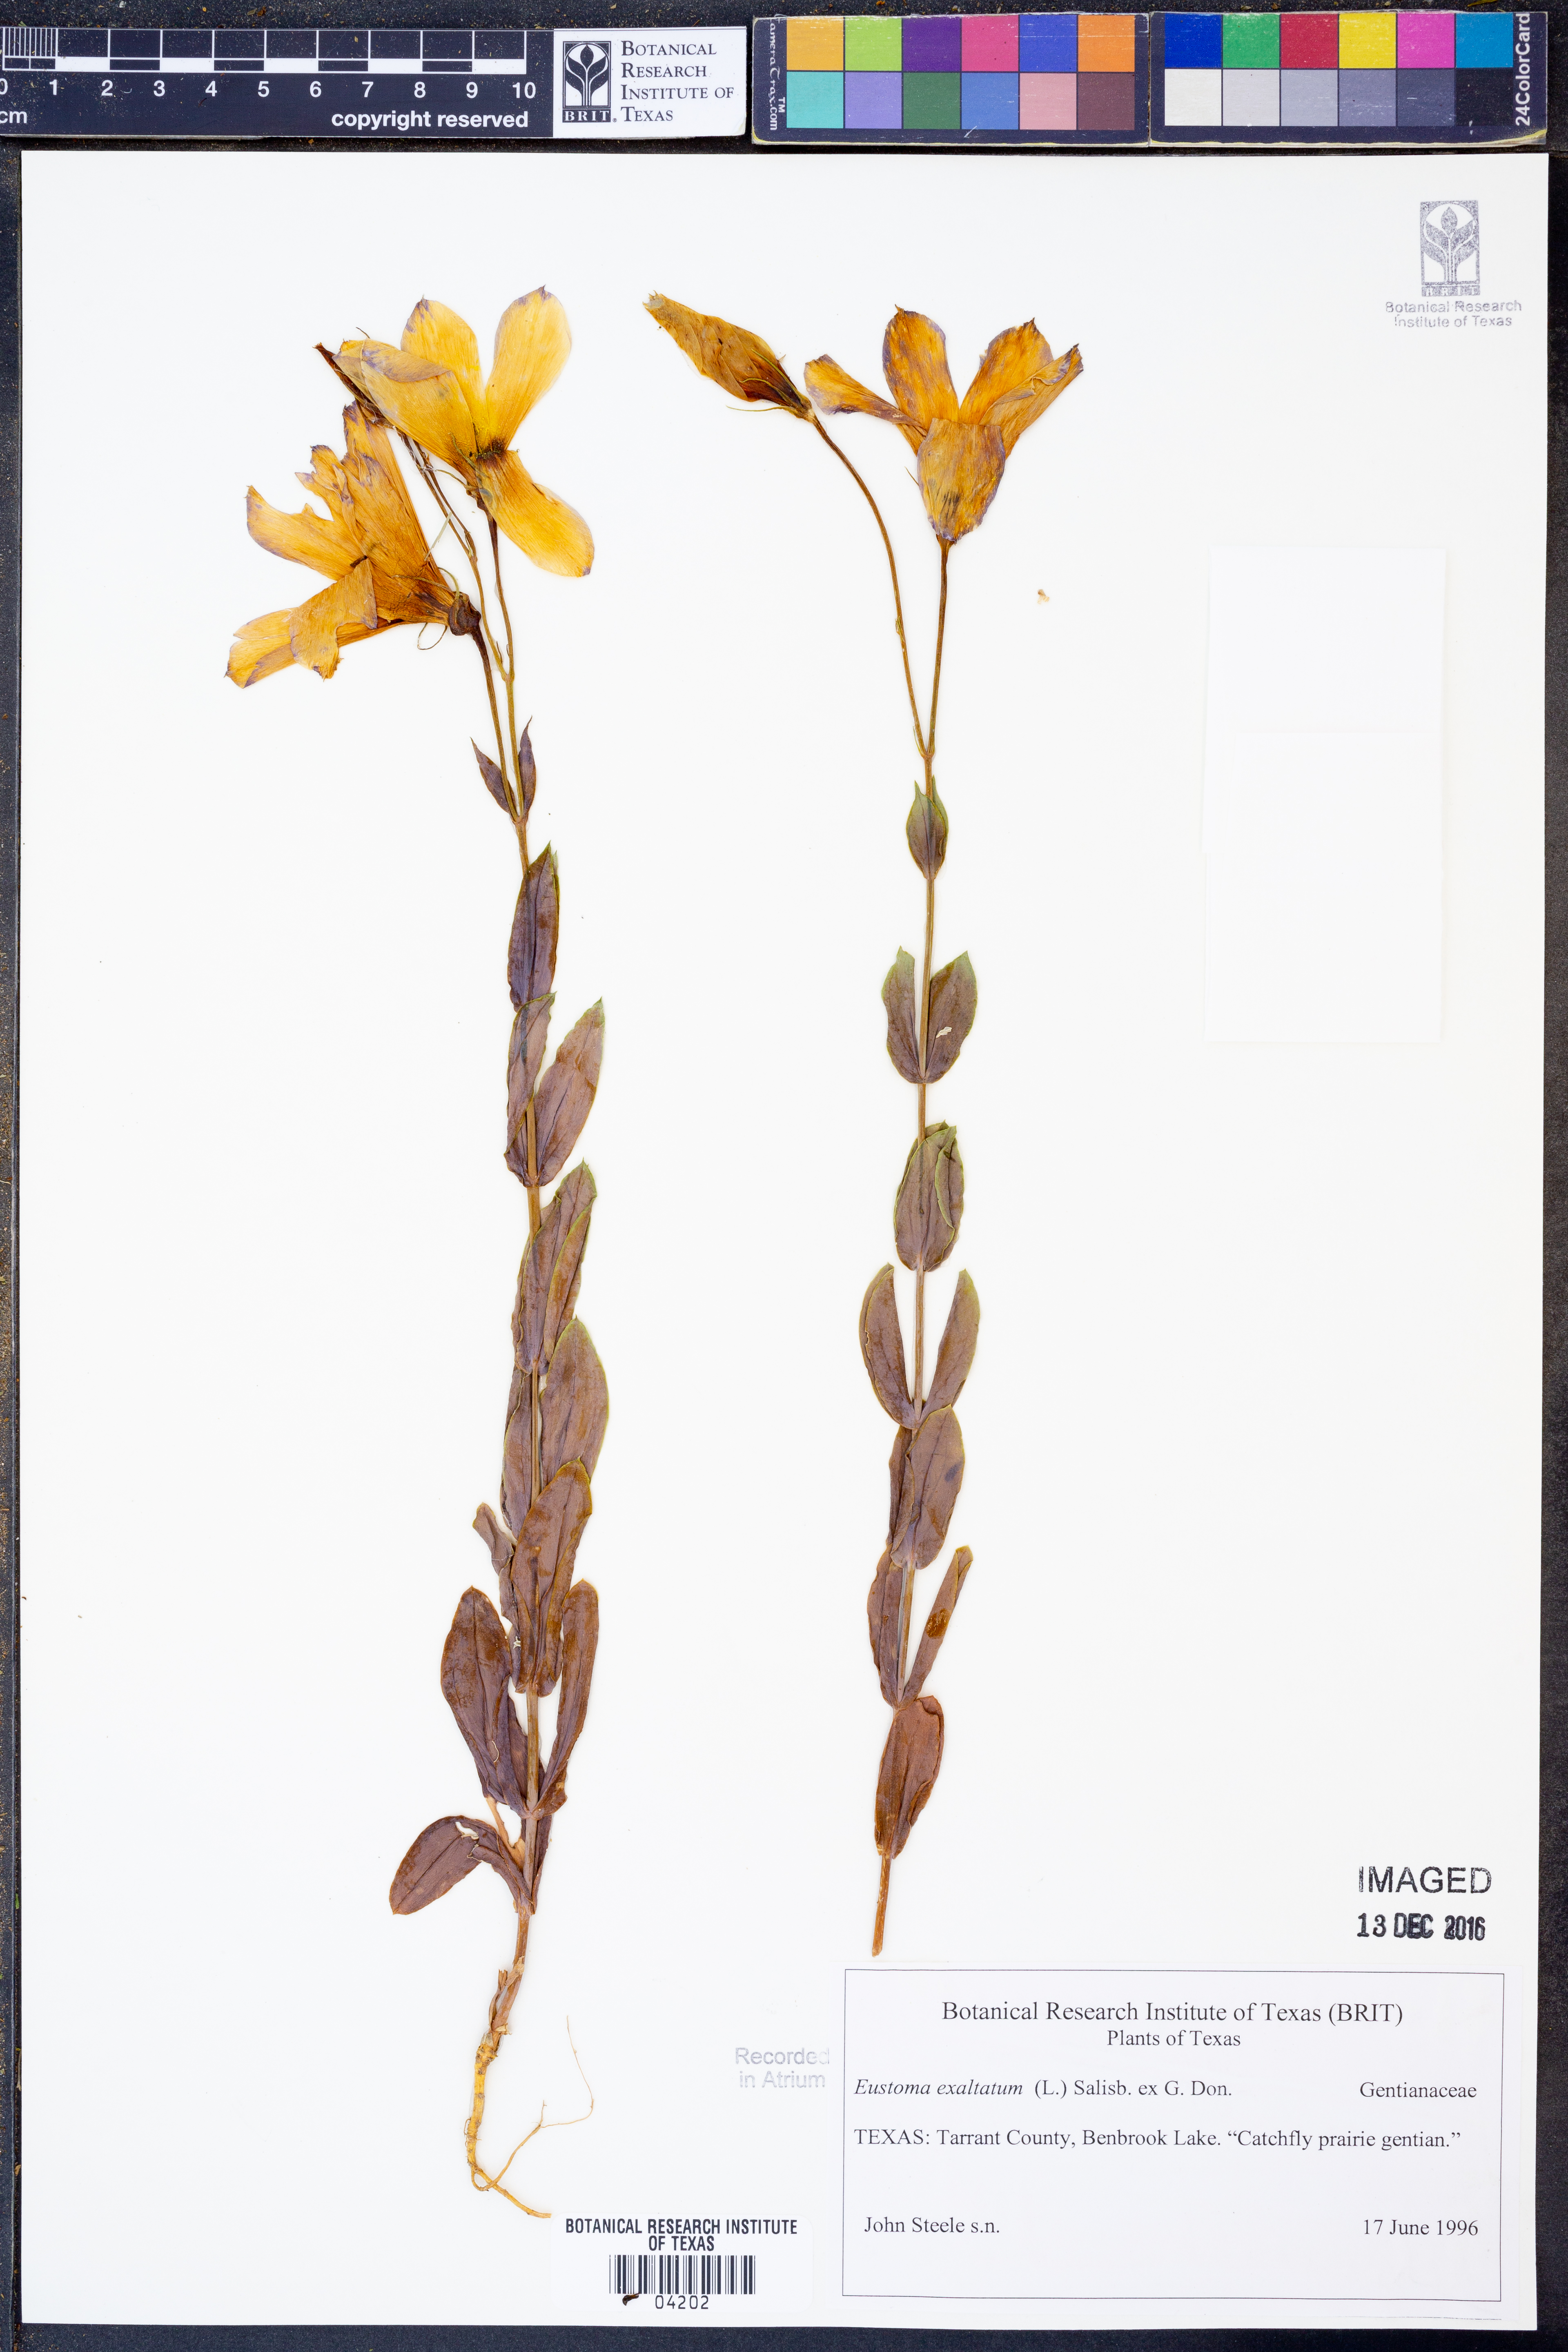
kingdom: Plantae
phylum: Tracheophyta
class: Magnoliopsida
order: Gentianales
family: Gentianaceae
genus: Eustoma
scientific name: Eustoma exaltatum
